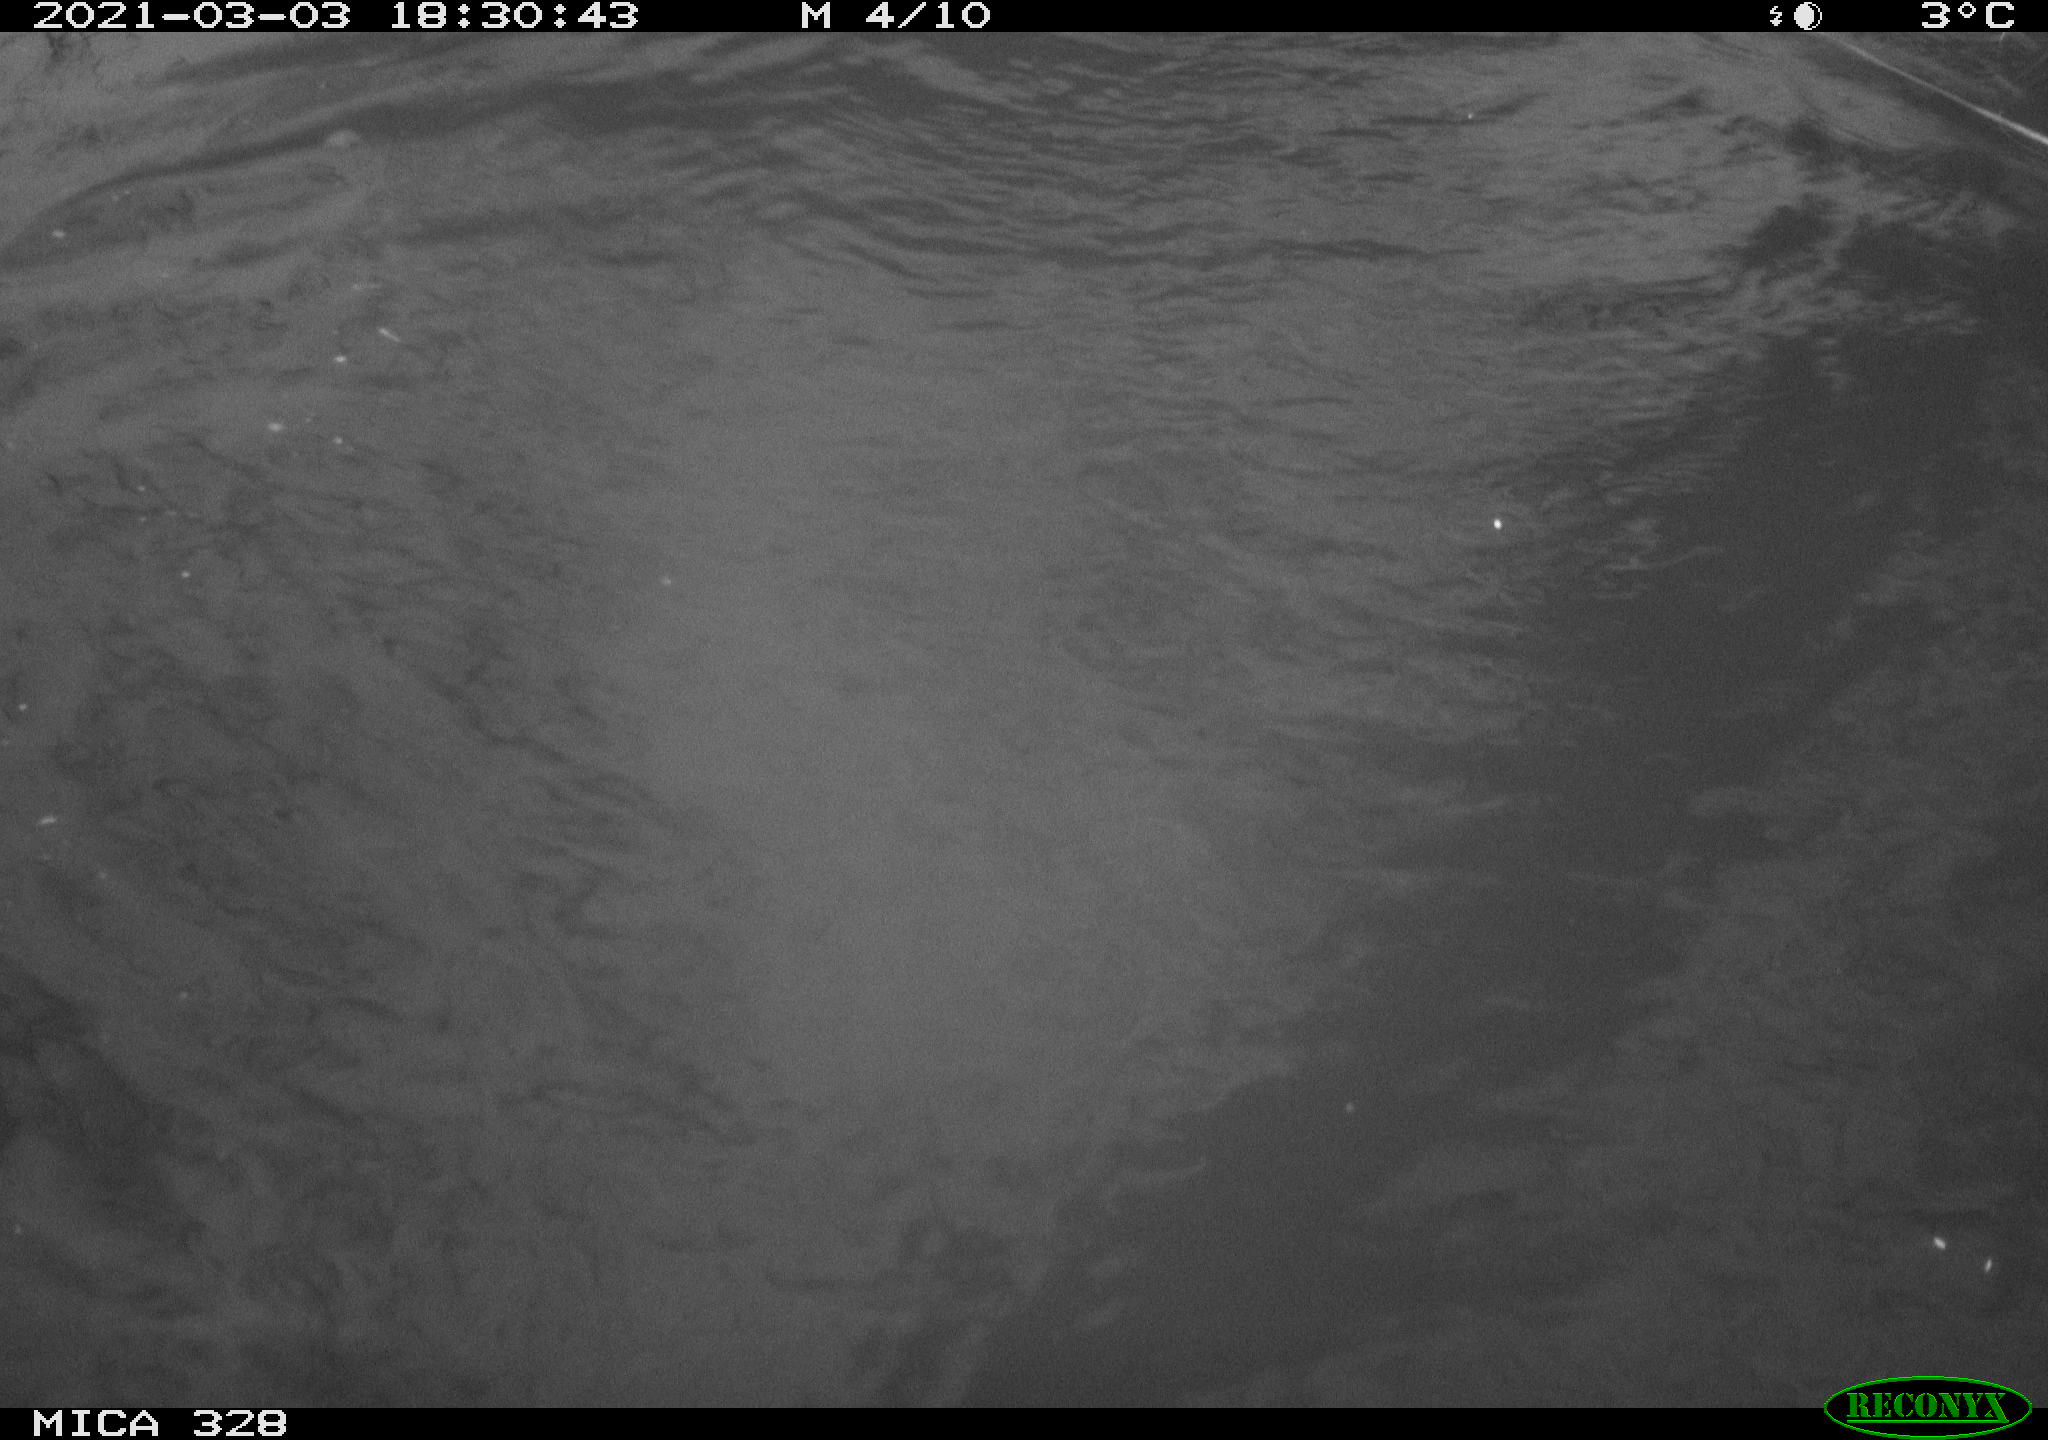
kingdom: Animalia
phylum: Chordata
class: Mammalia
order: Rodentia
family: Cricetidae
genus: Ondatra
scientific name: Ondatra zibethicus
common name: Muskrat
